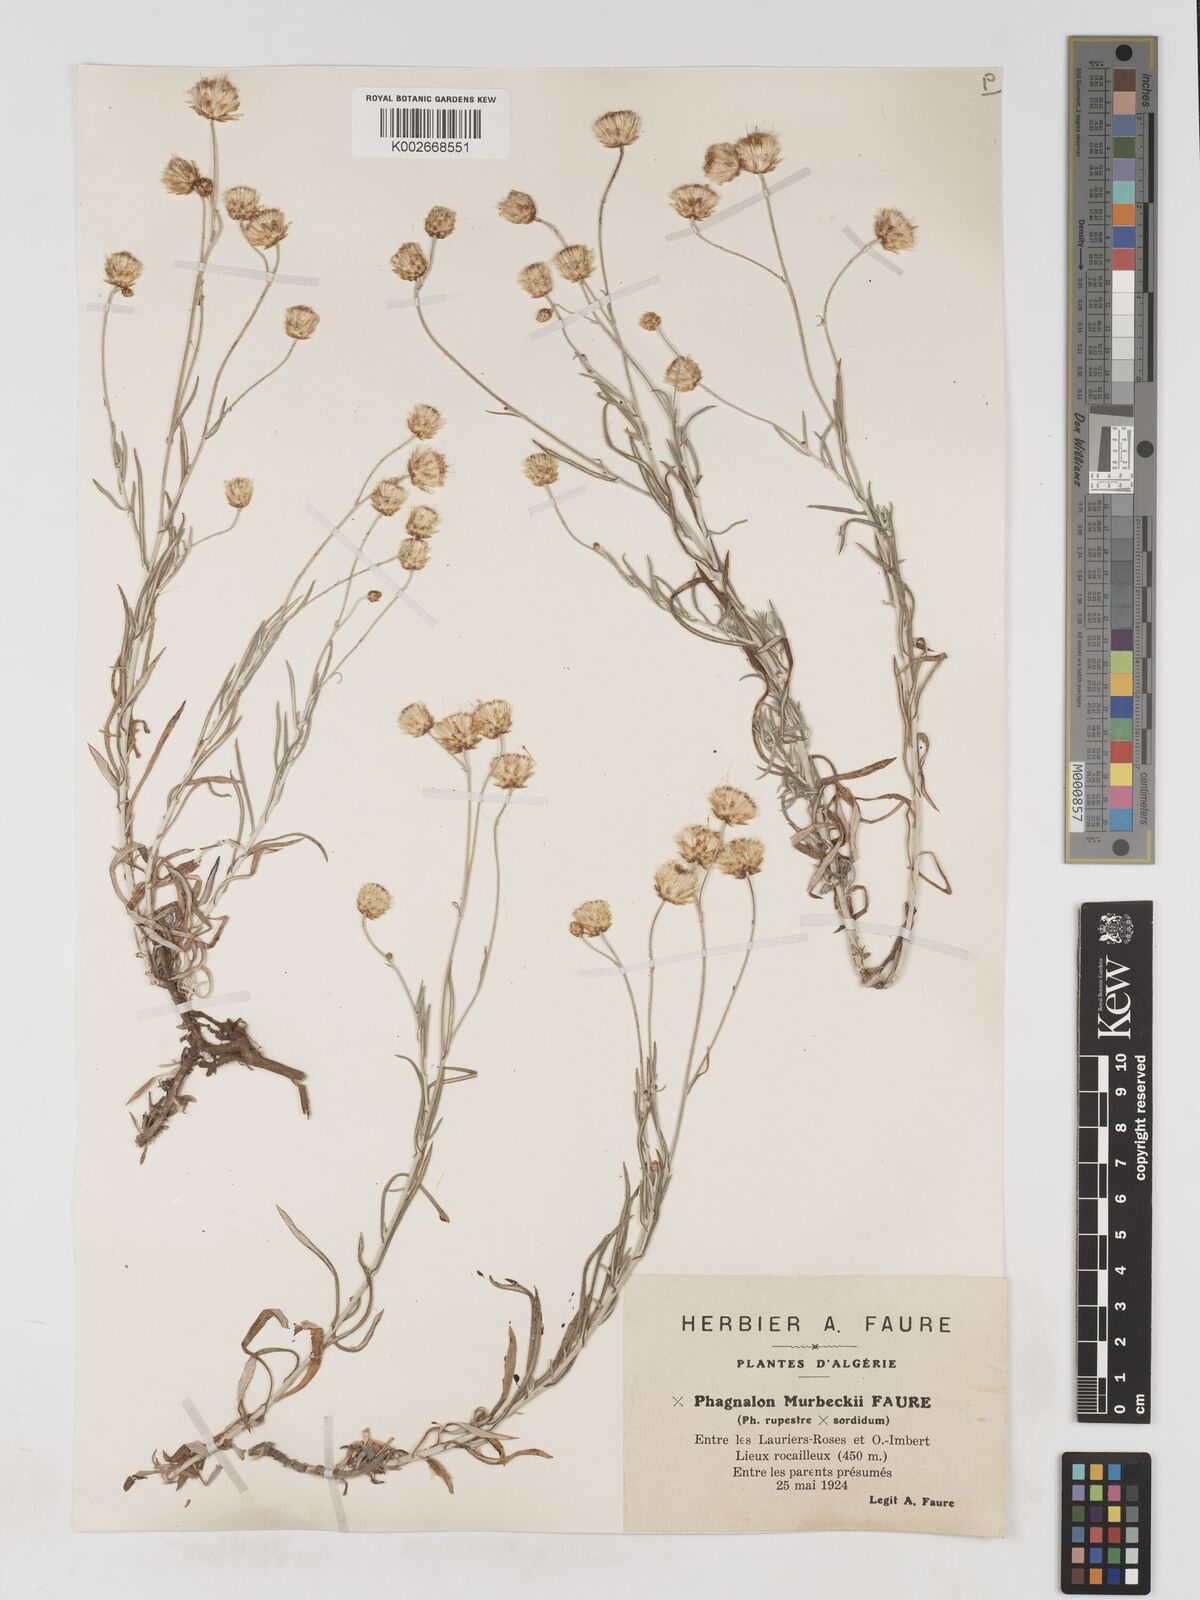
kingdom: Plantae
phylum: Tracheophyta
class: Magnoliopsida
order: Asterales
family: Asteraceae
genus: Phagnalon
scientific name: Phagnalon murbeckii
